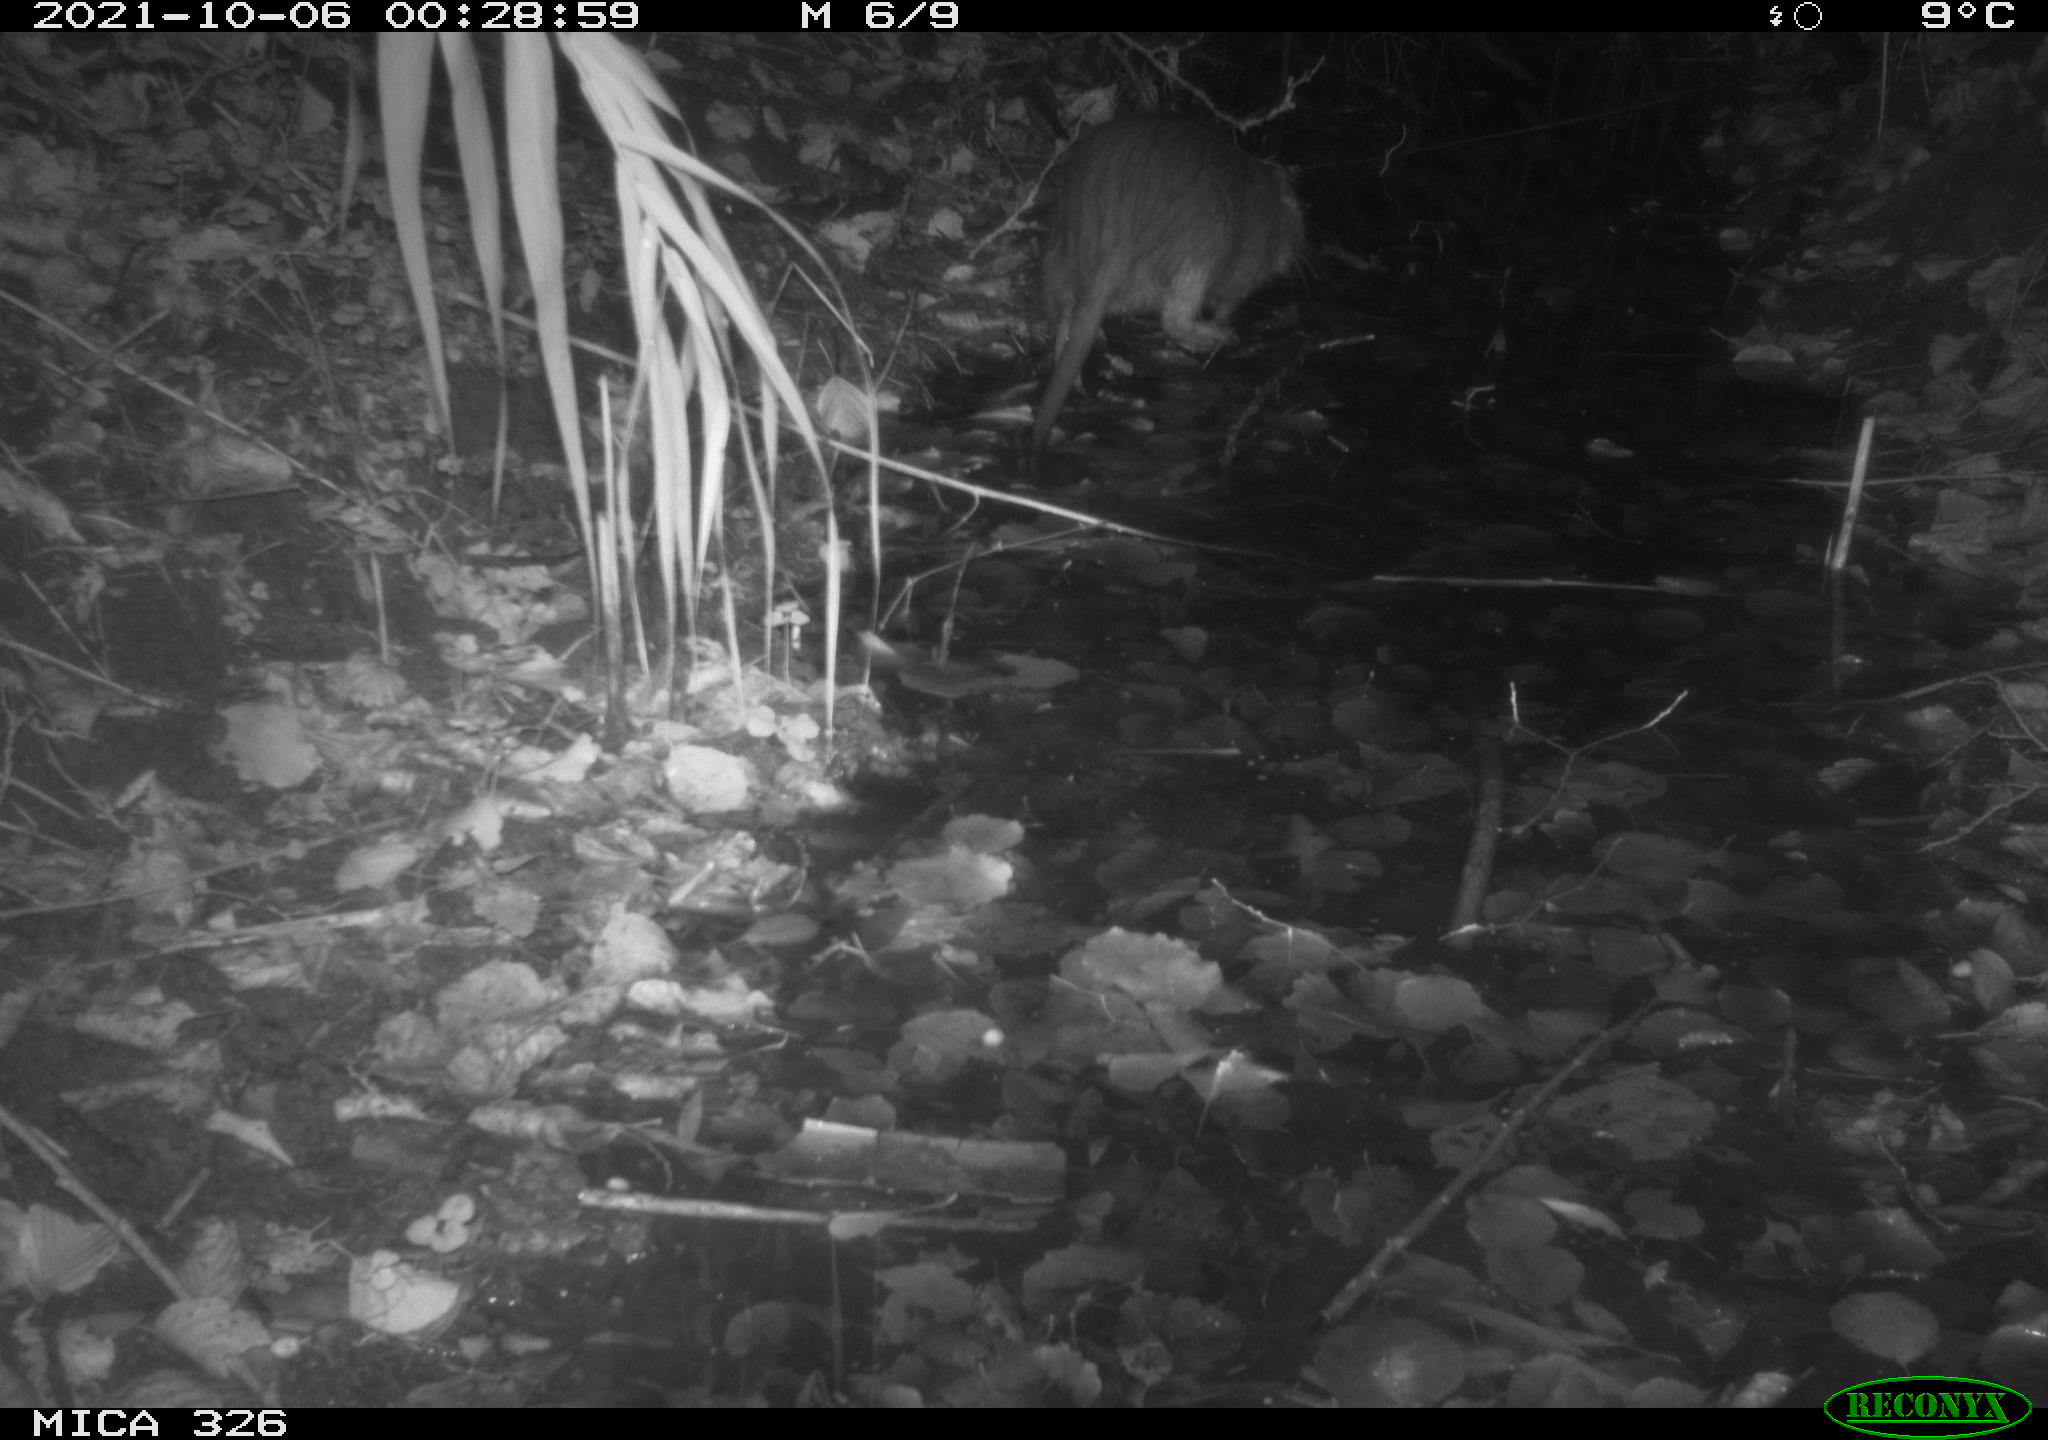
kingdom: Animalia
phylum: Chordata
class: Mammalia
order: Rodentia
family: Myocastoridae
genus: Myocastor
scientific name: Myocastor coypus
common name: Coypu
